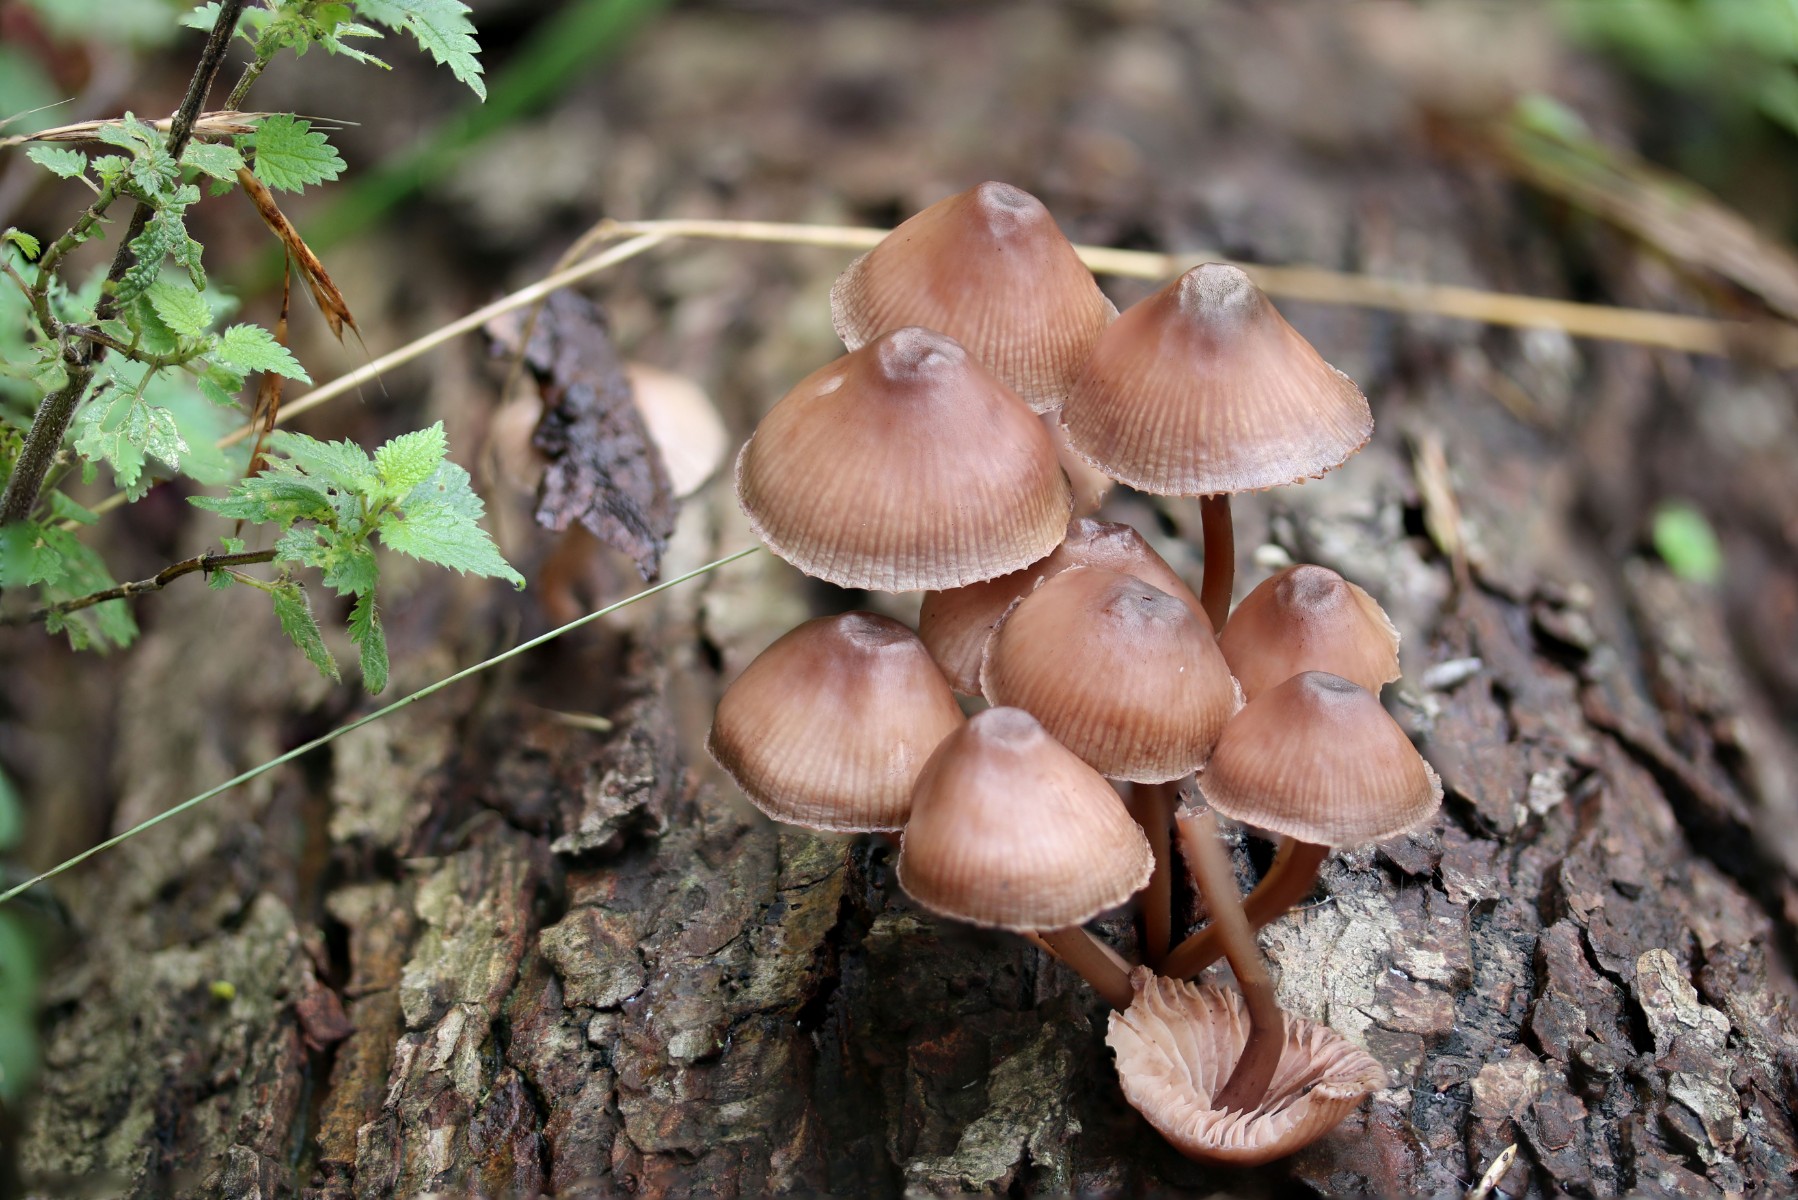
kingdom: Fungi
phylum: Basidiomycota
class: Agaricomycetes
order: Agaricales
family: Mycenaceae
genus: Mycena
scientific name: Mycena haematopus
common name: blødende huesvamp
